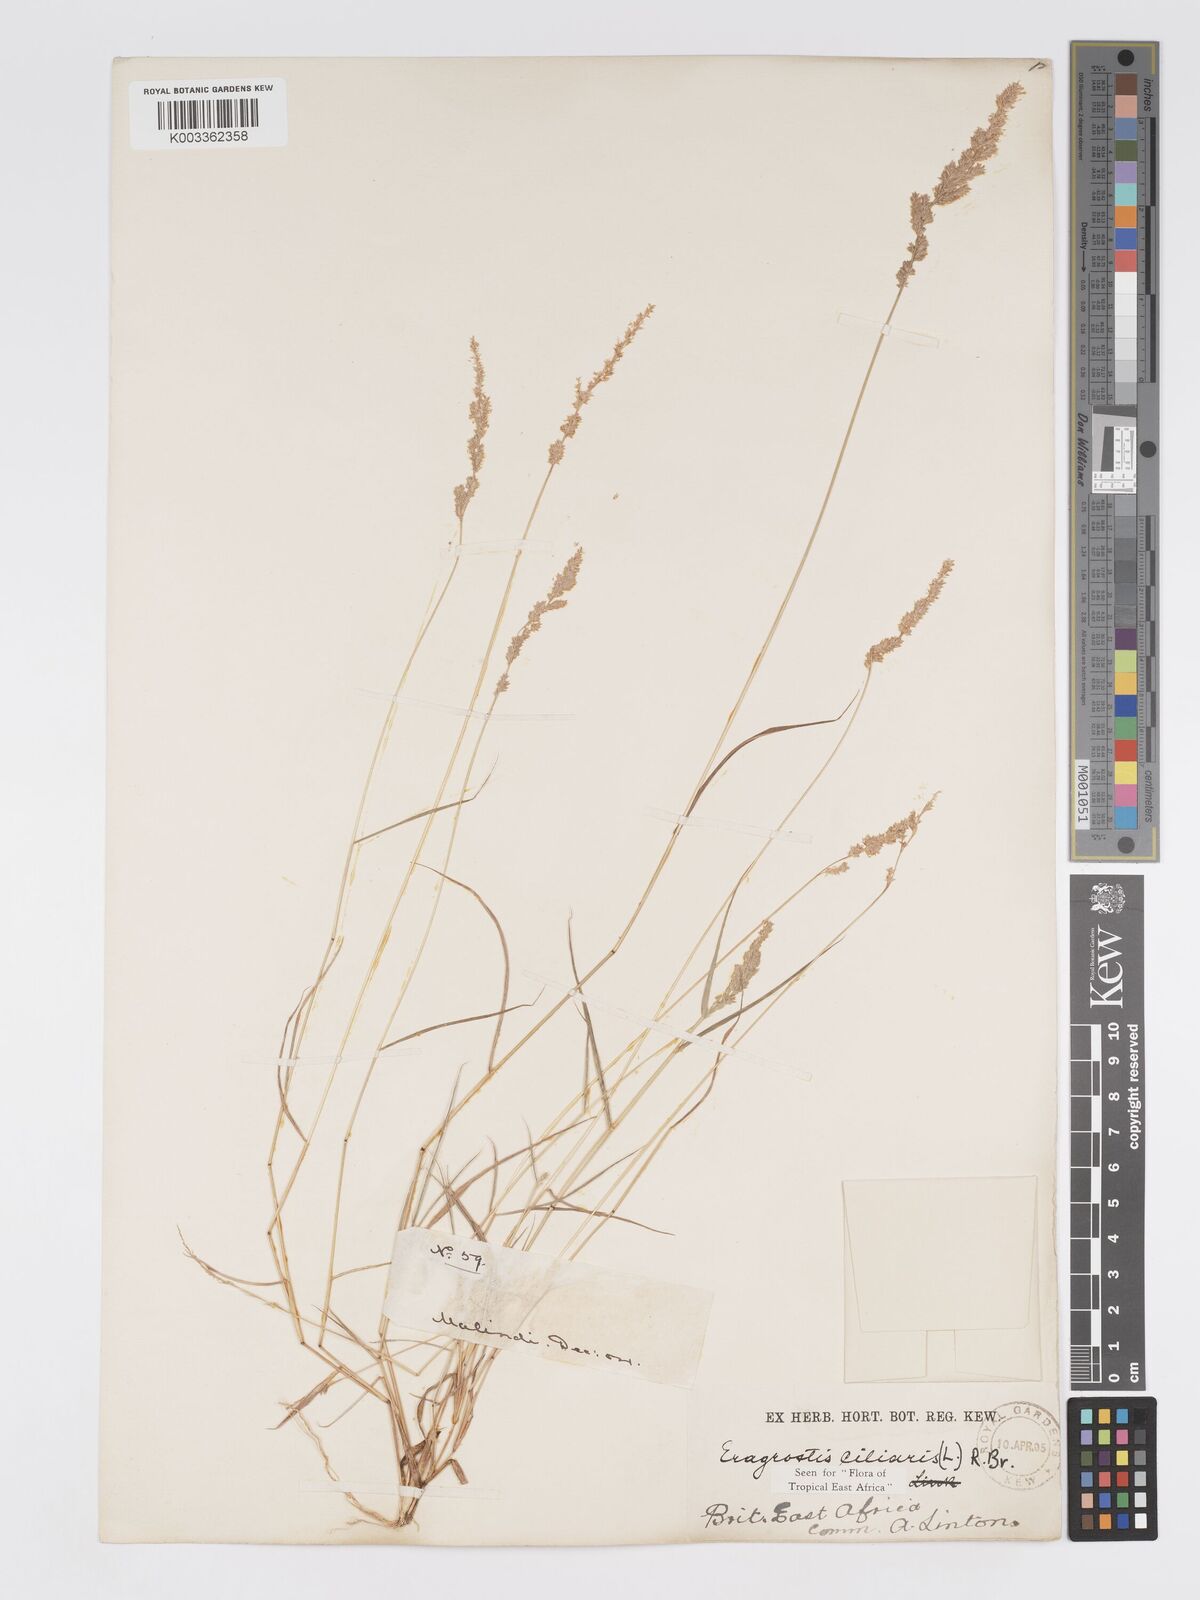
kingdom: Plantae
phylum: Tracheophyta
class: Liliopsida
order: Poales
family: Poaceae
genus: Eragrostis
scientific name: Eragrostis ciliaris
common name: Gophertail lovegrass
